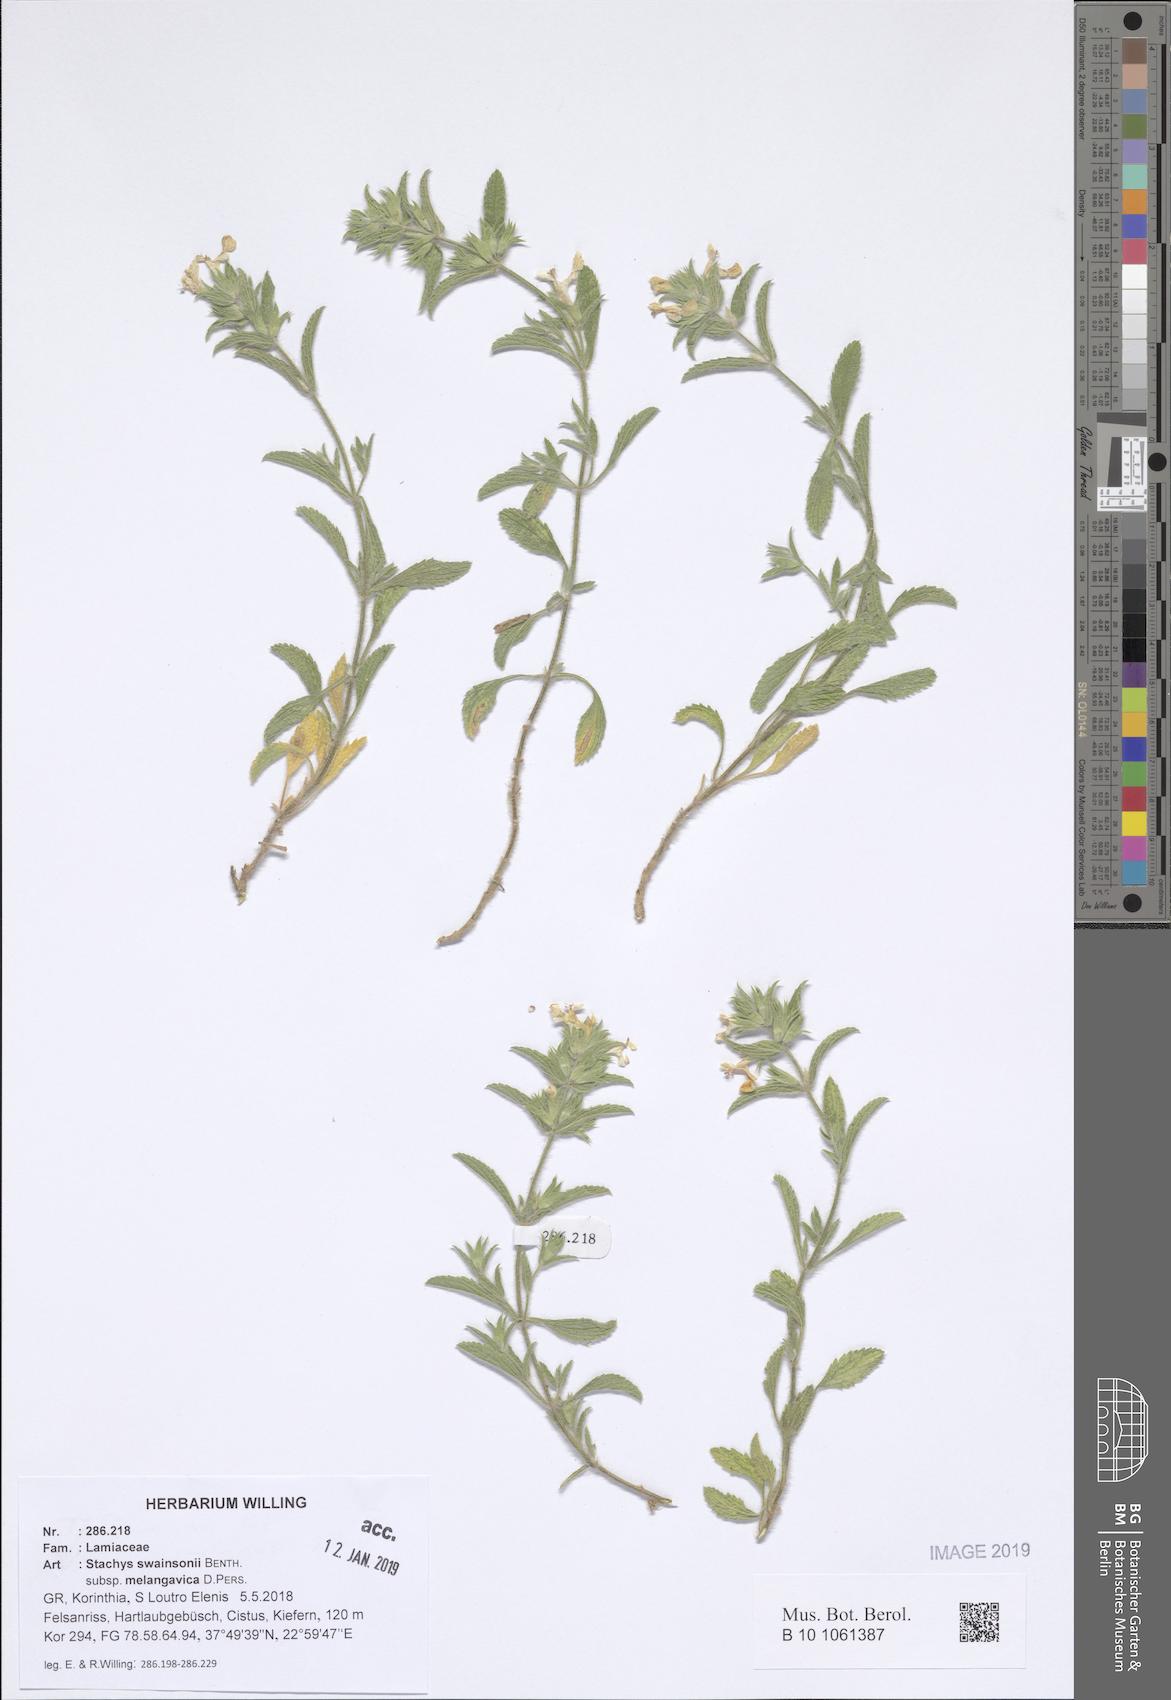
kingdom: Plantae
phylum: Tracheophyta
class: Magnoliopsida
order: Lamiales
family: Lamiaceae
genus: Stachys
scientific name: Stachys swainsonii
